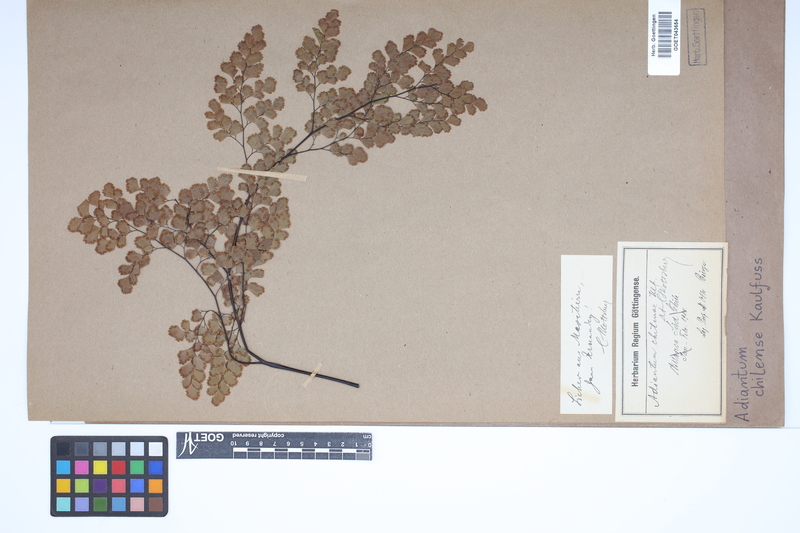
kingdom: Plantae
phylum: Tracheophyta
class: Polypodiopsida
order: Polypodiales
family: Pteridaceae
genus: Adiantum
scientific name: Adiantum chilense
